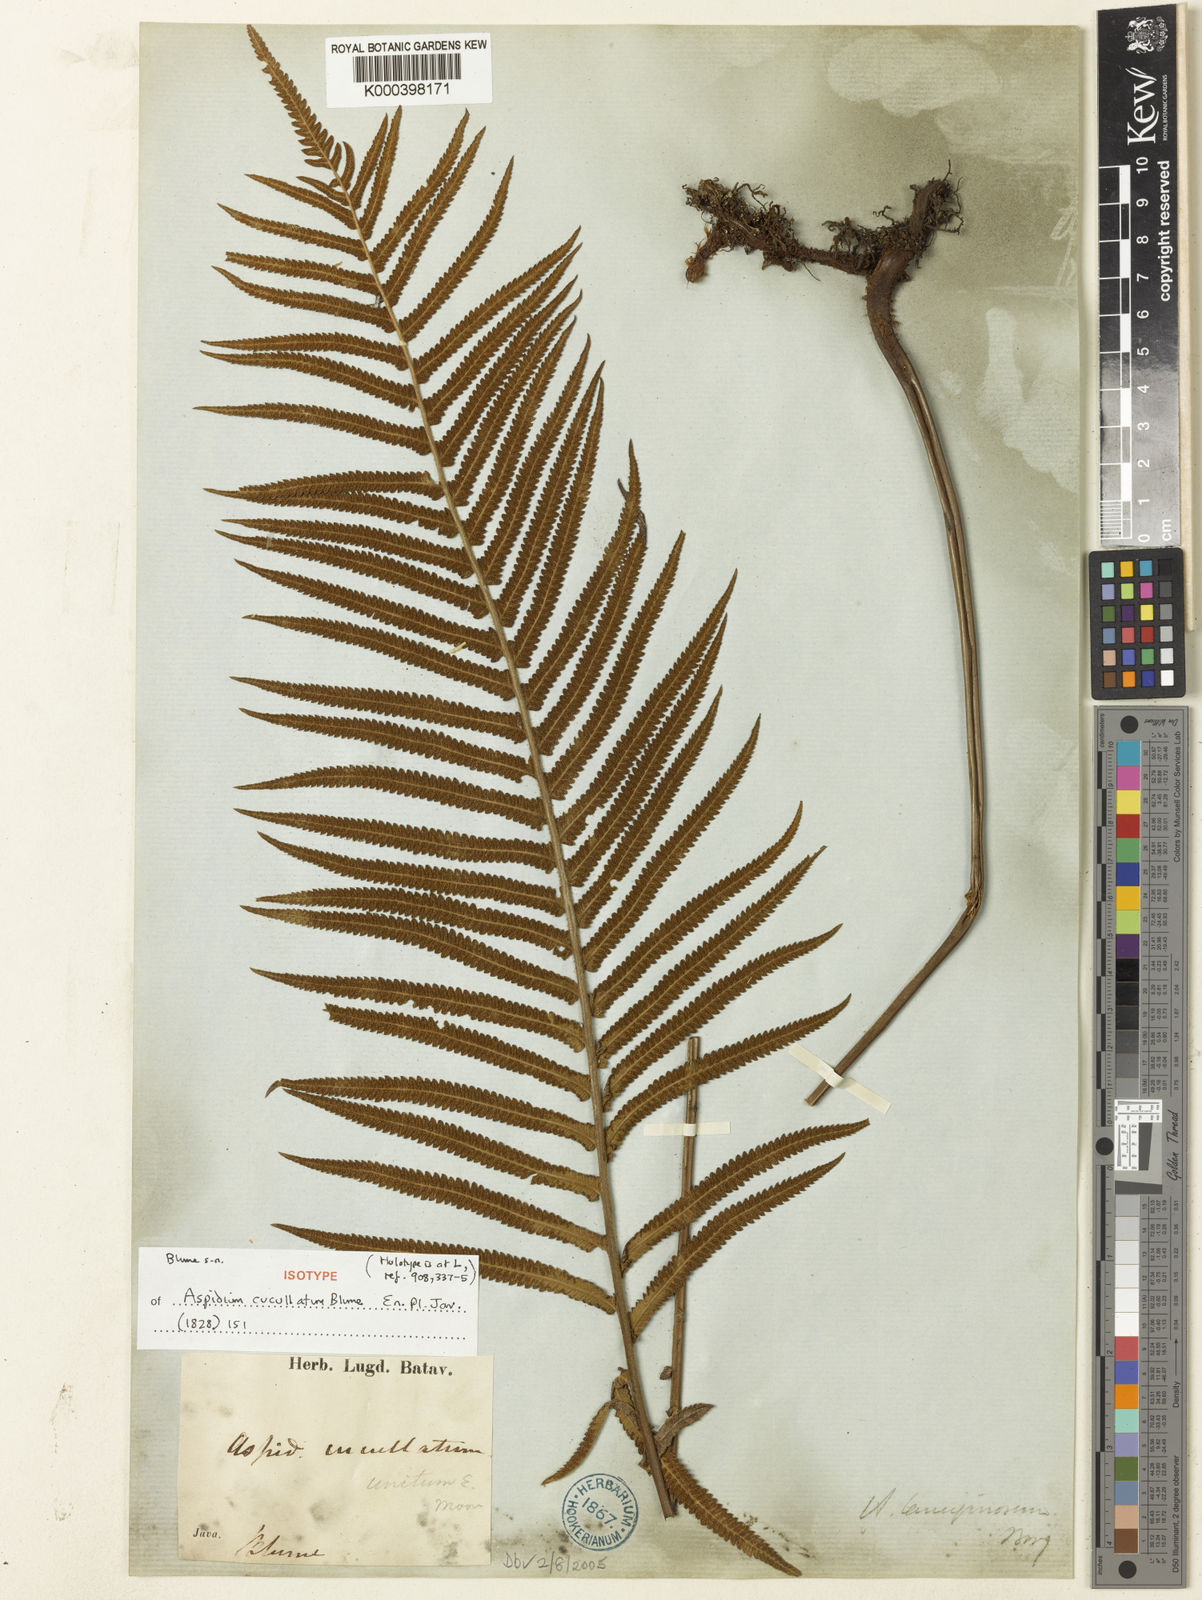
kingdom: Plantae
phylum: Tracheophyta
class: Polypodiopsida
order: Polypodiales
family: Thelypteridaceae
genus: Strophocaulon
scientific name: Strophocaulon unitum
